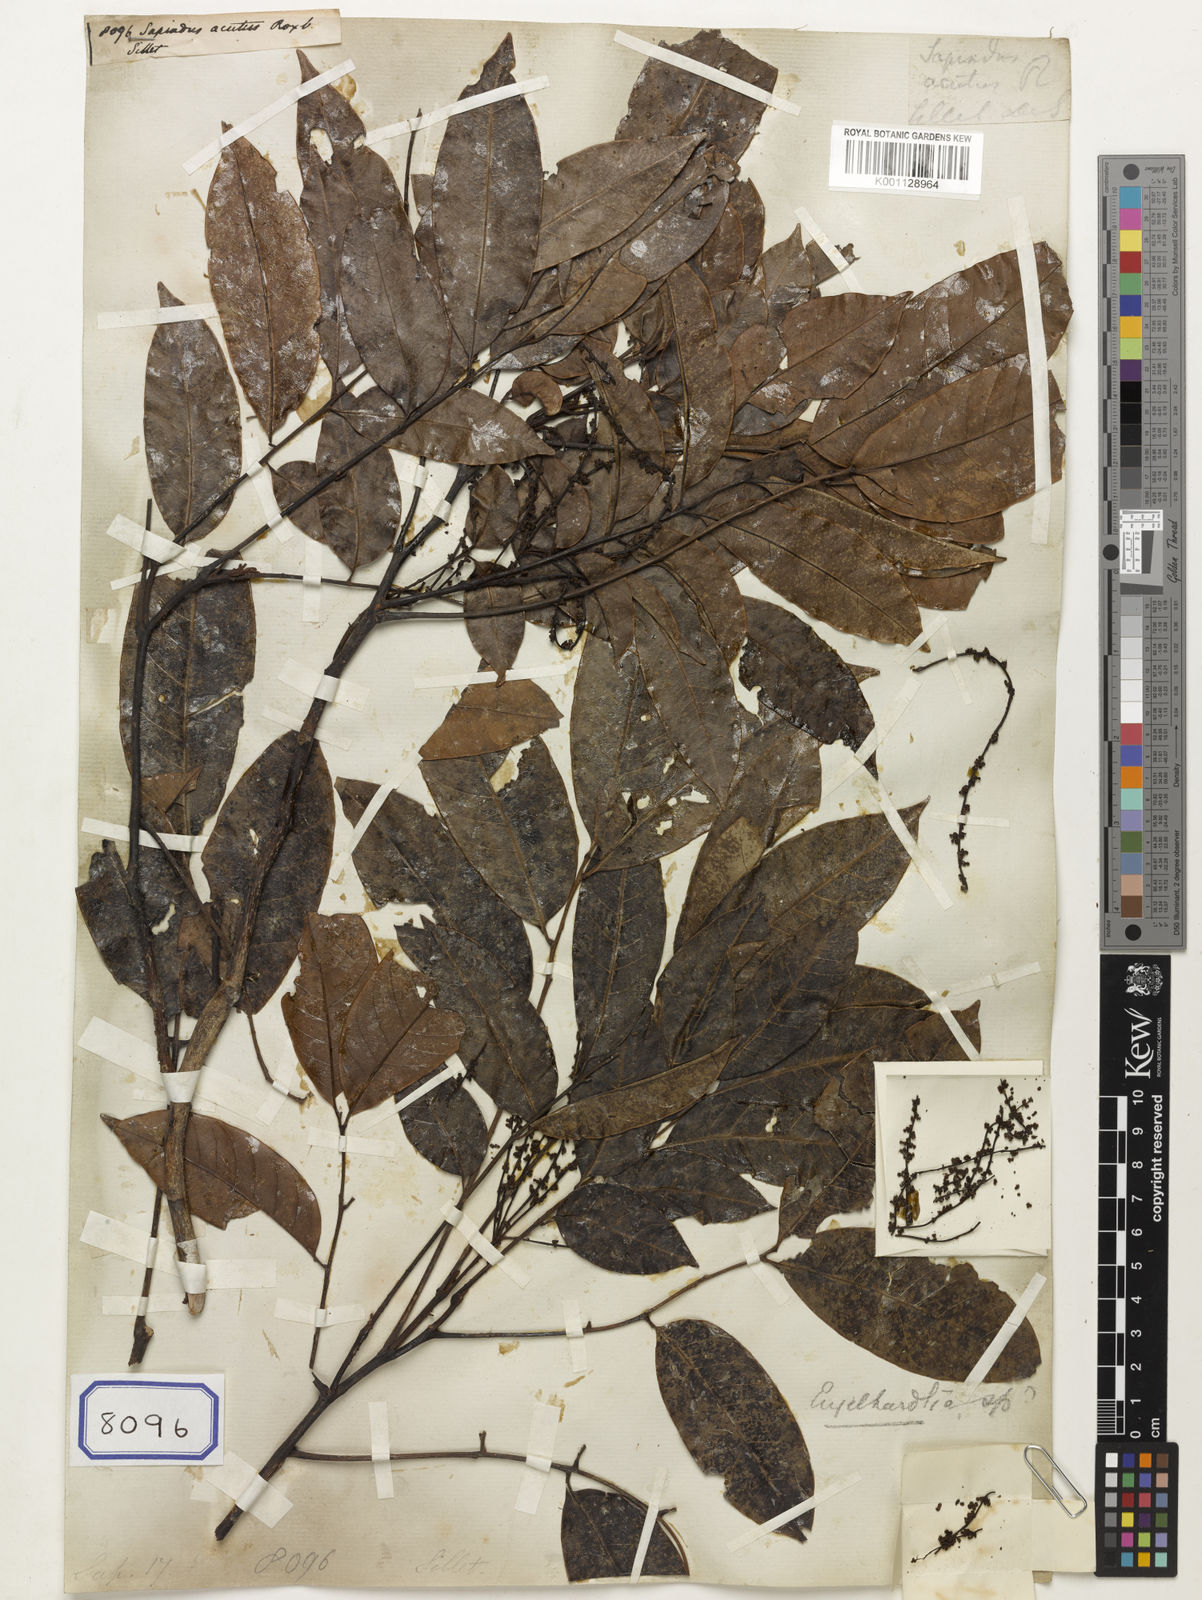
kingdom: Plantae
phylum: Tracheophyta
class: Magnoliopsida
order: Sapindales
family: Sapindaceae
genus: Sapindus
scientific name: Sapindus acutus
